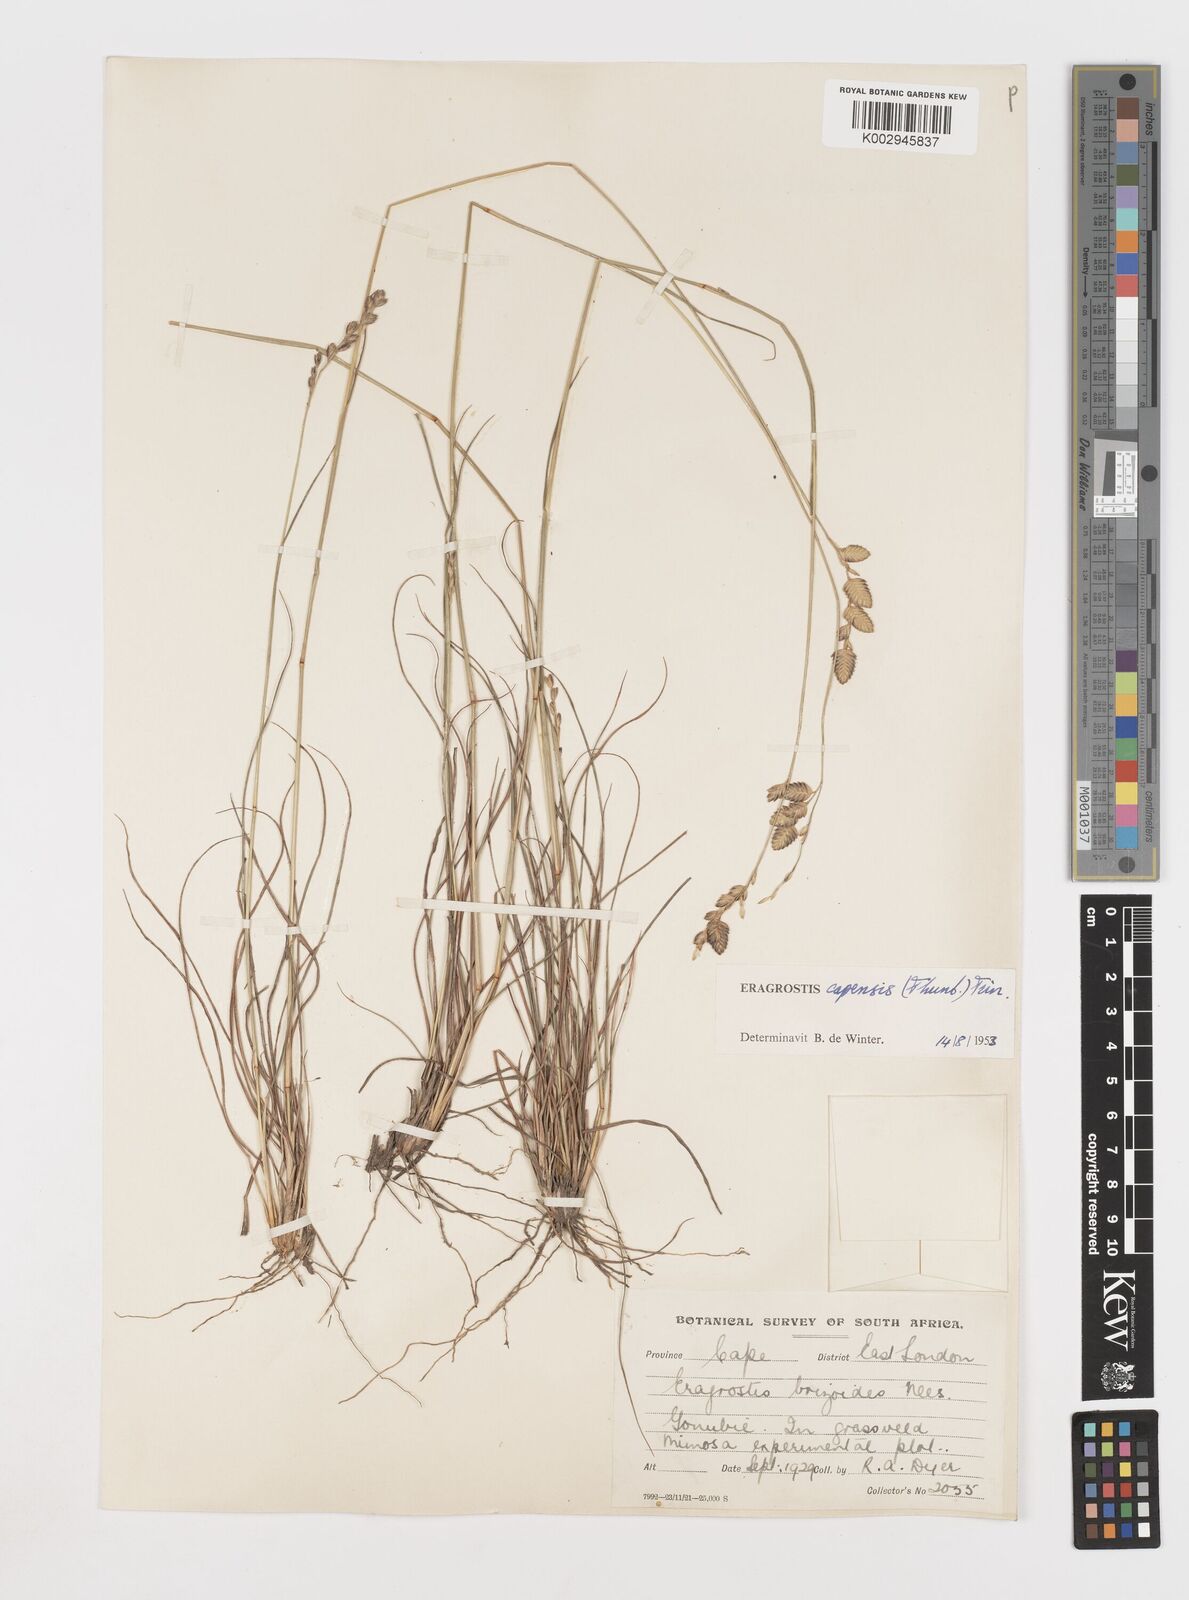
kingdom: Plantae
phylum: Tracheophyta
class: Liliopsida
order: Poales
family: Poaceae
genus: Eragrostis
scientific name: Eragrostis capensis
